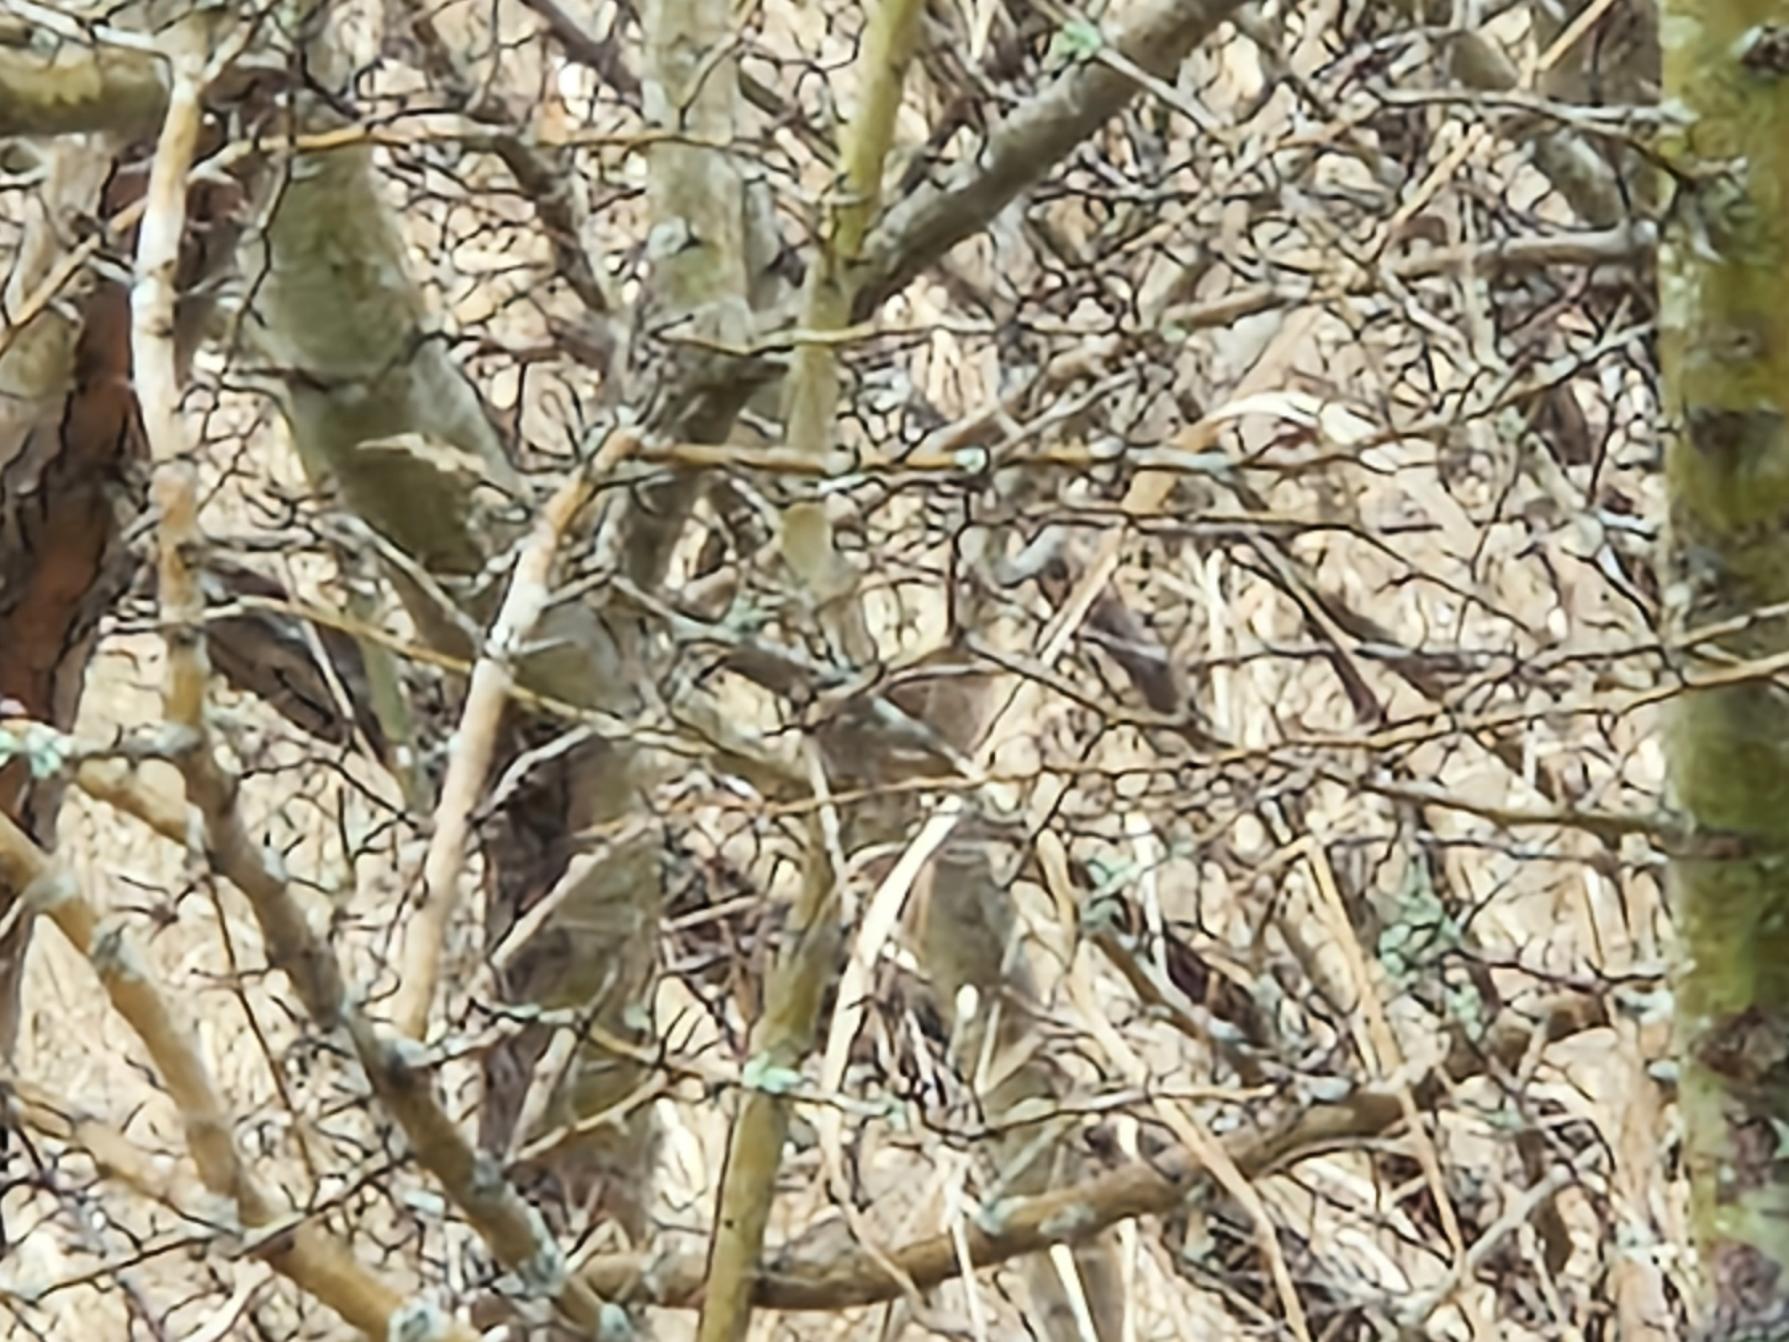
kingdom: Animalia
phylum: Chordata
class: Aves
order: Passeriformes
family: Troglodytidae
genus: Troglodytes
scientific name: Troglodytes troglodytes
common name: Gærdesmutte
